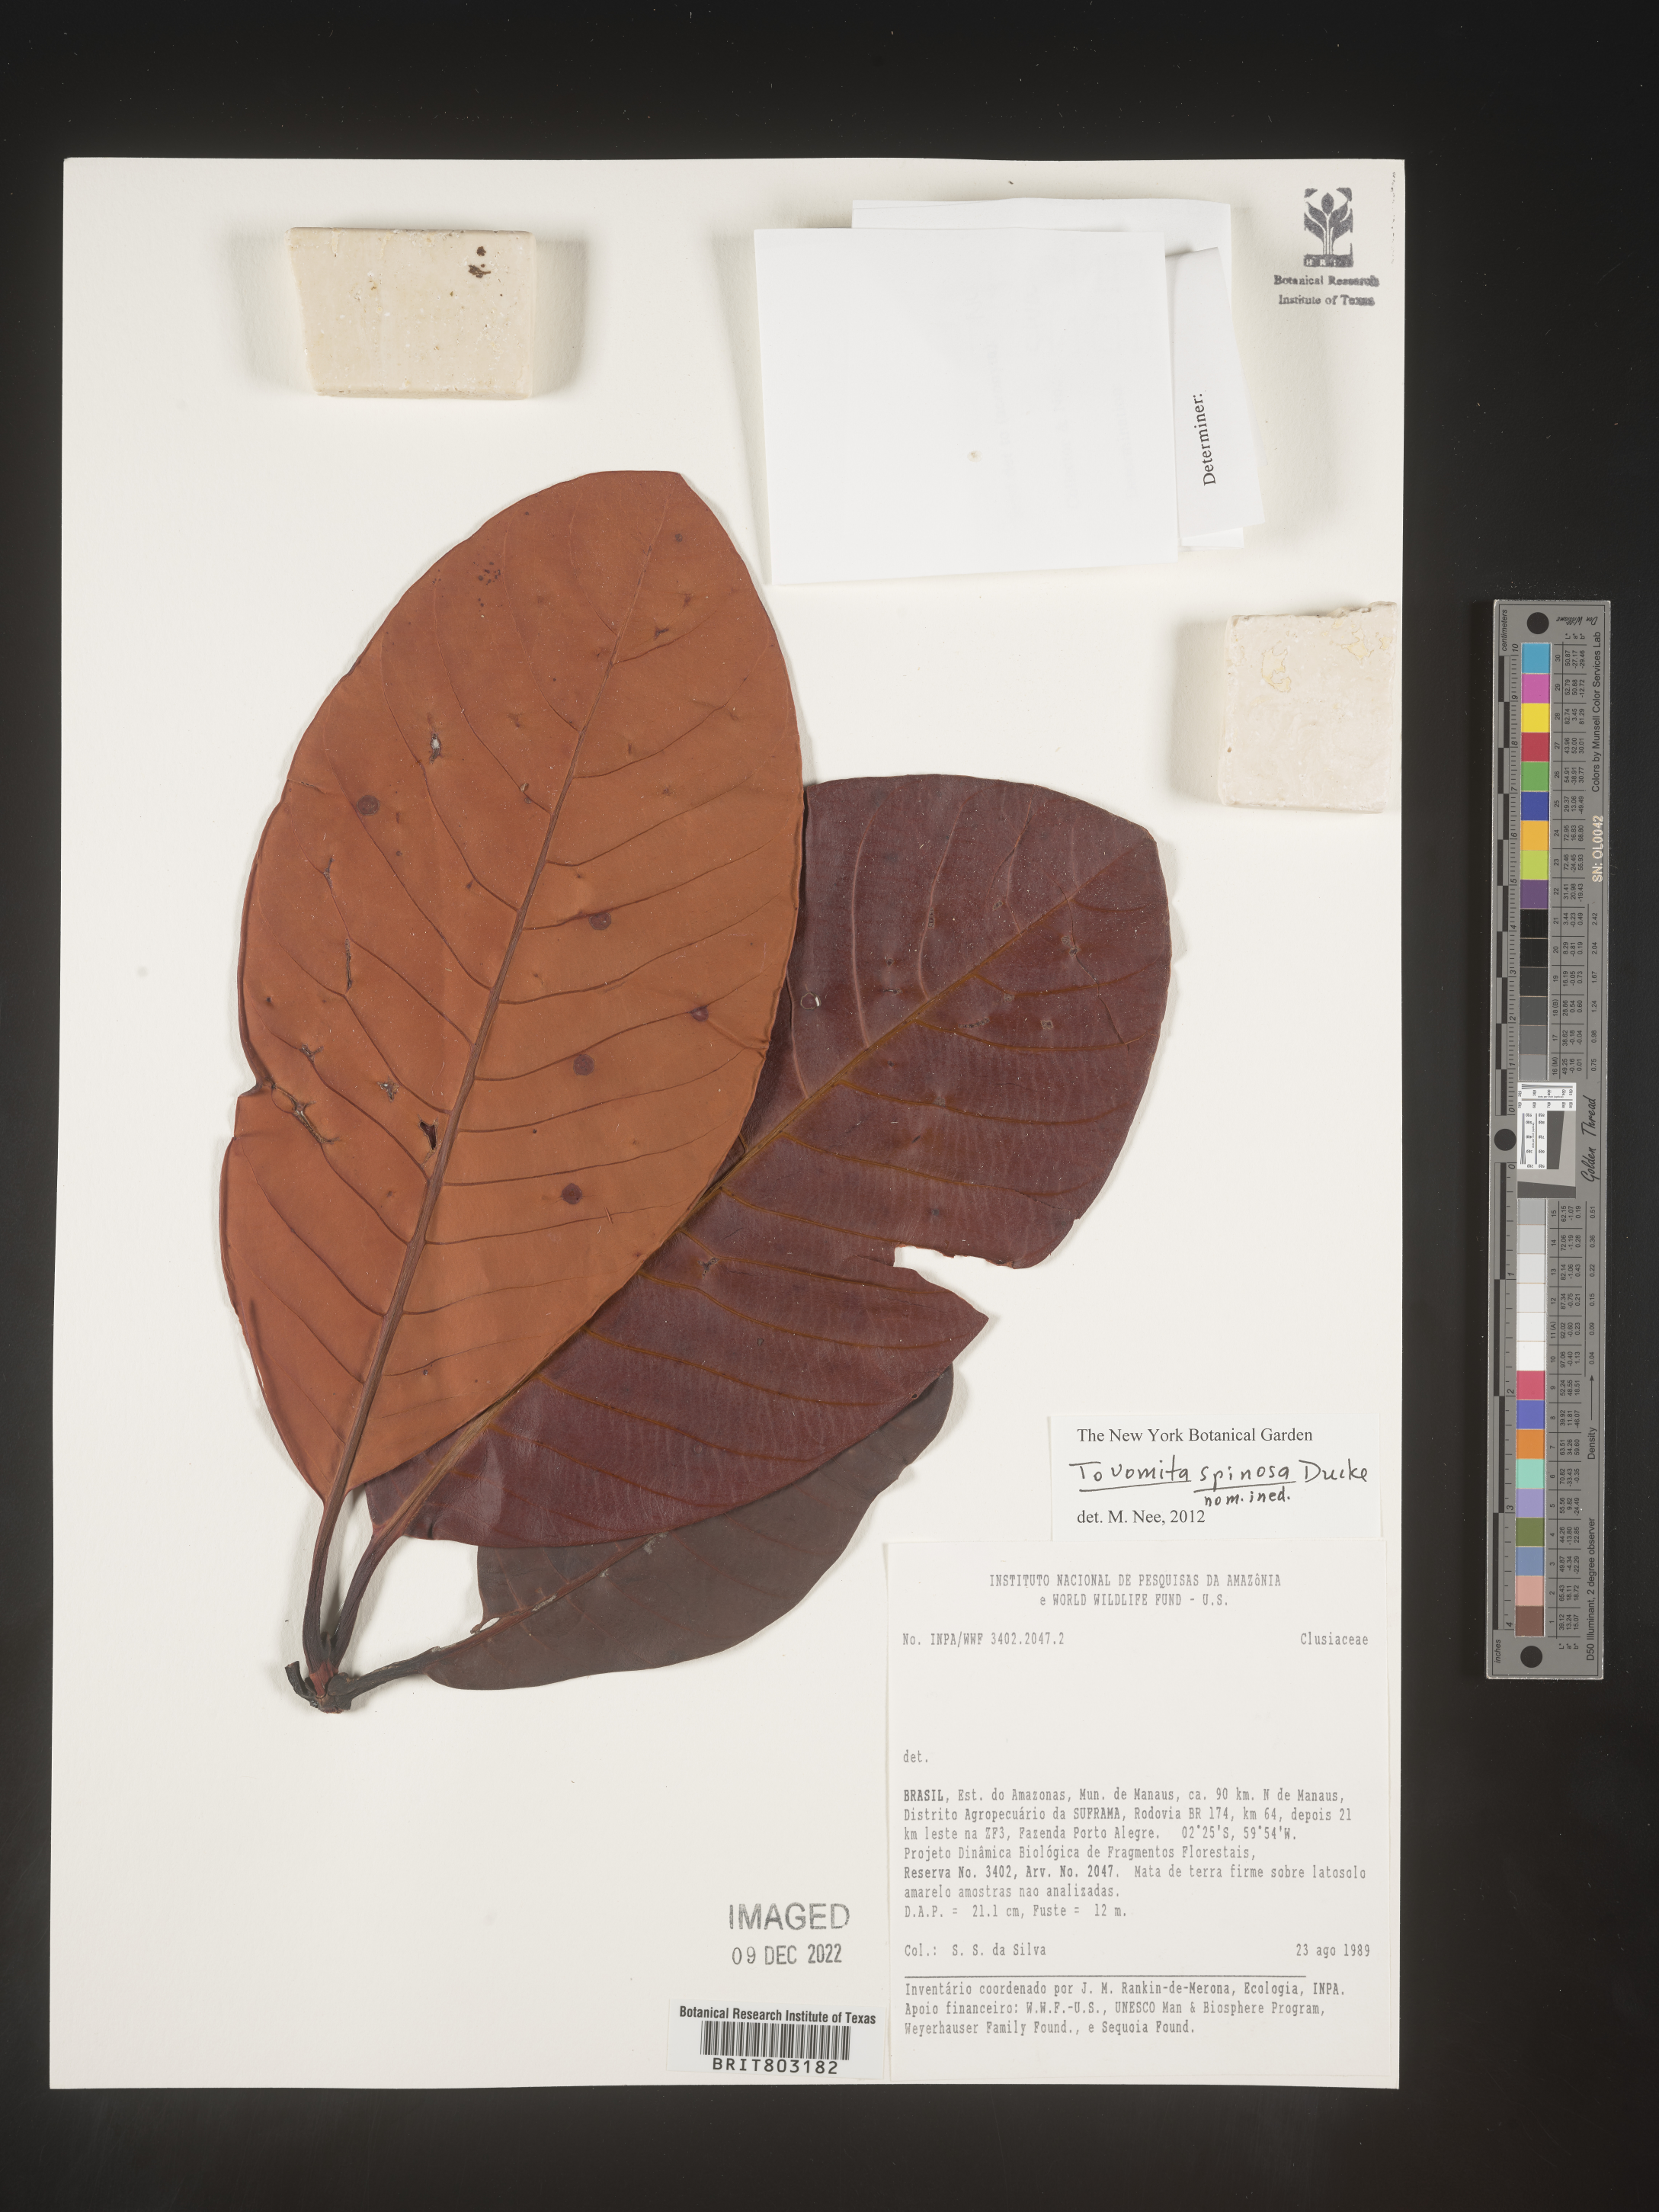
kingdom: Plantae
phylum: Tracheophyta
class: Magnoliopsida
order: Malpighiales
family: Clusiaceae
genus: Tovomita
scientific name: Tovomita
